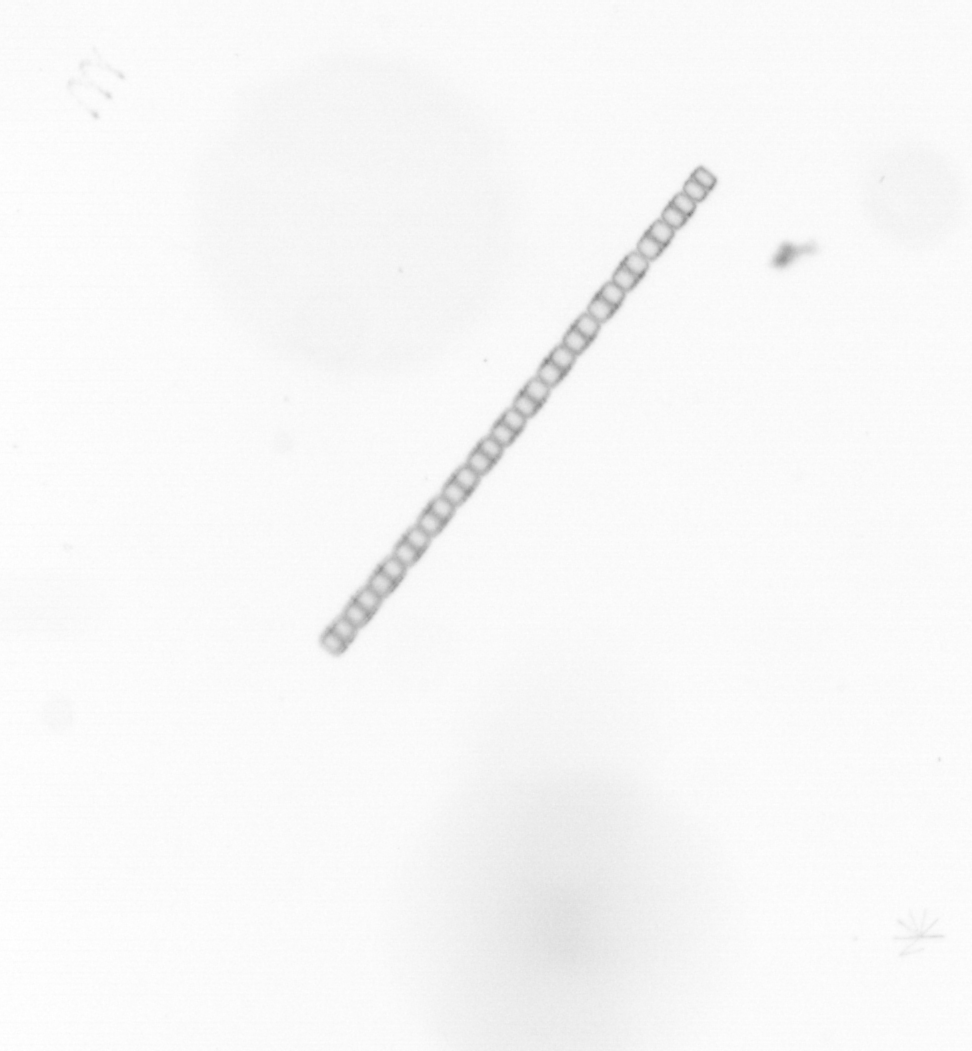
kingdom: Chromista
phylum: Ochrophyta
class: Bacillariophyceae
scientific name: Bacillariophyceae
